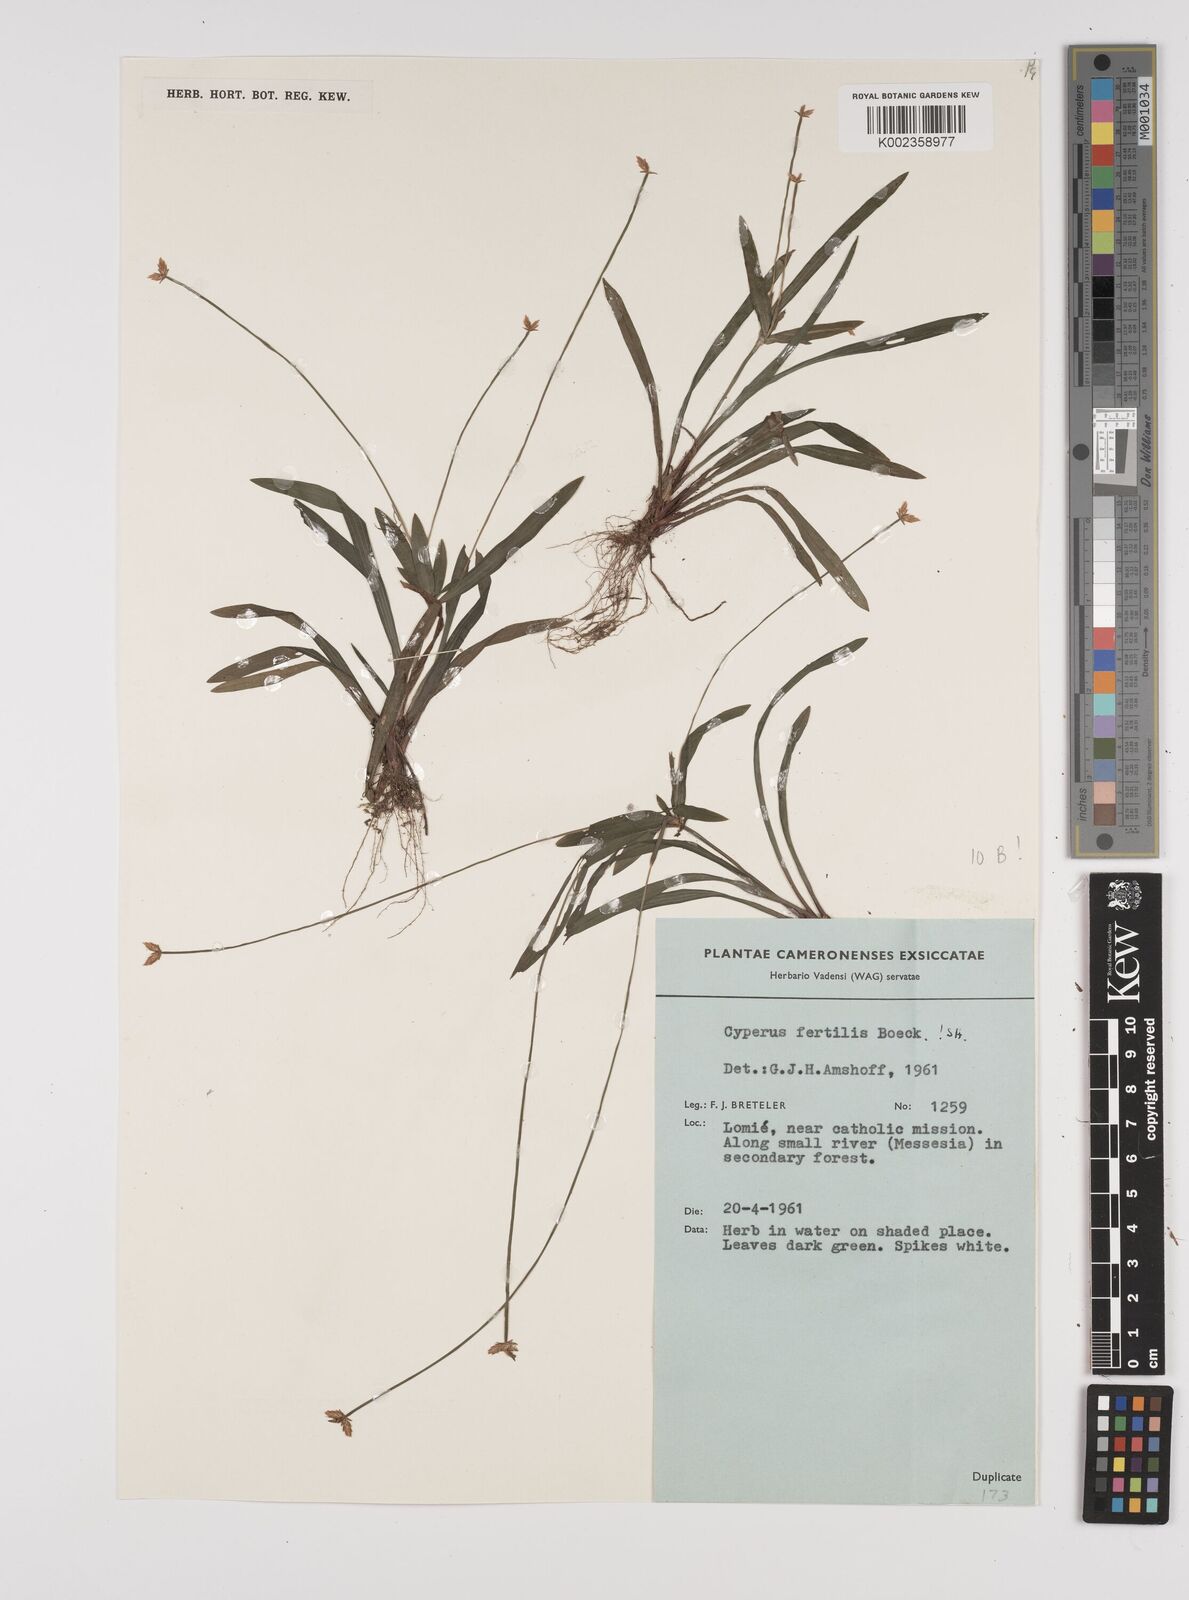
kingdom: Plantae
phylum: Tracheophyta
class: Liliopsida
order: Poales
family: Cyperaceae
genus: Cyperus
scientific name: Cyperus fertilis
